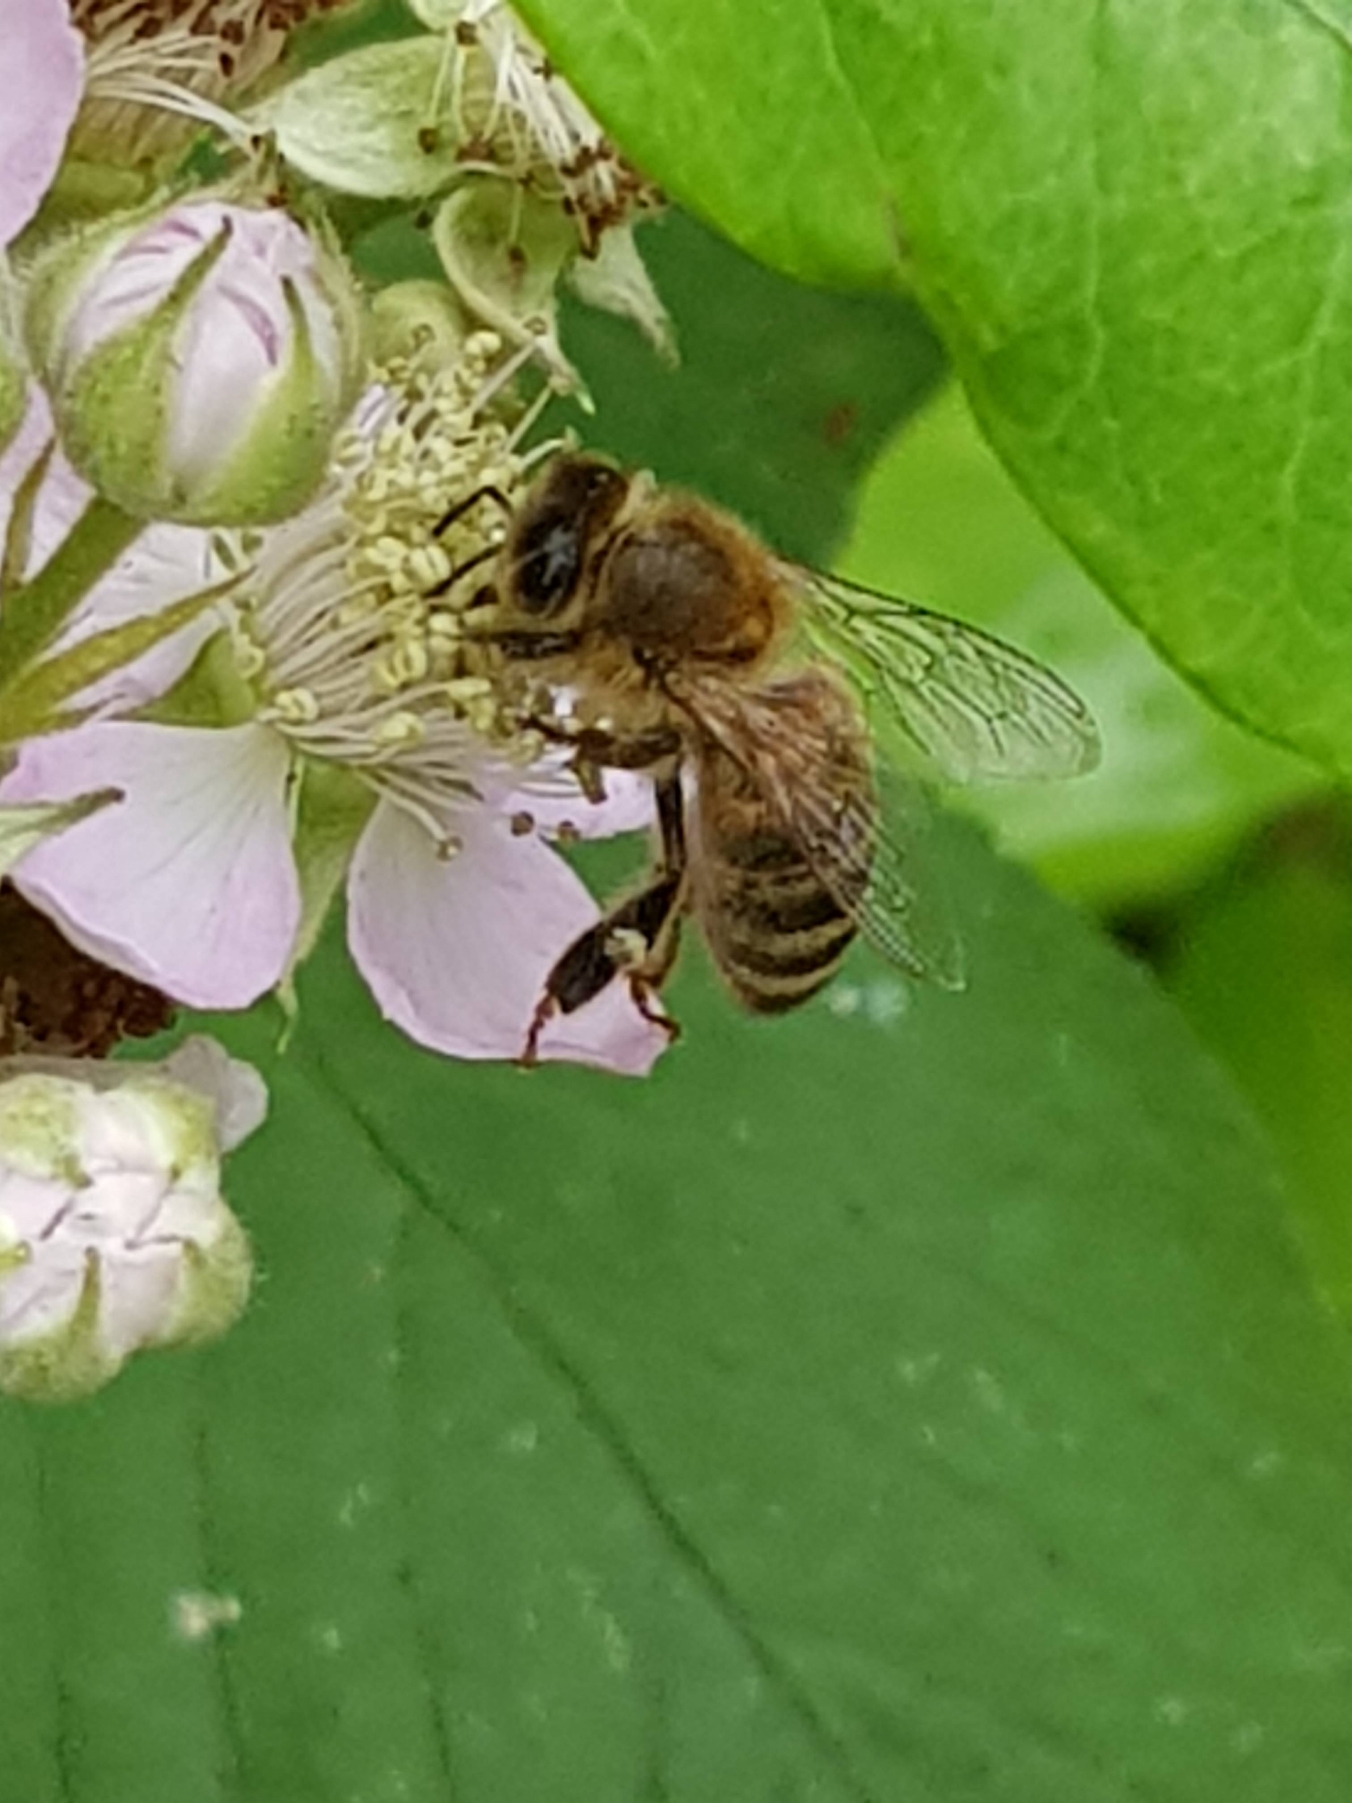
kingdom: Animalia
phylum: Arthropoda
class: Insecta
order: Hymenoptera
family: Apidae
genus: Apis
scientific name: Apis mellifera
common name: Honningbi
